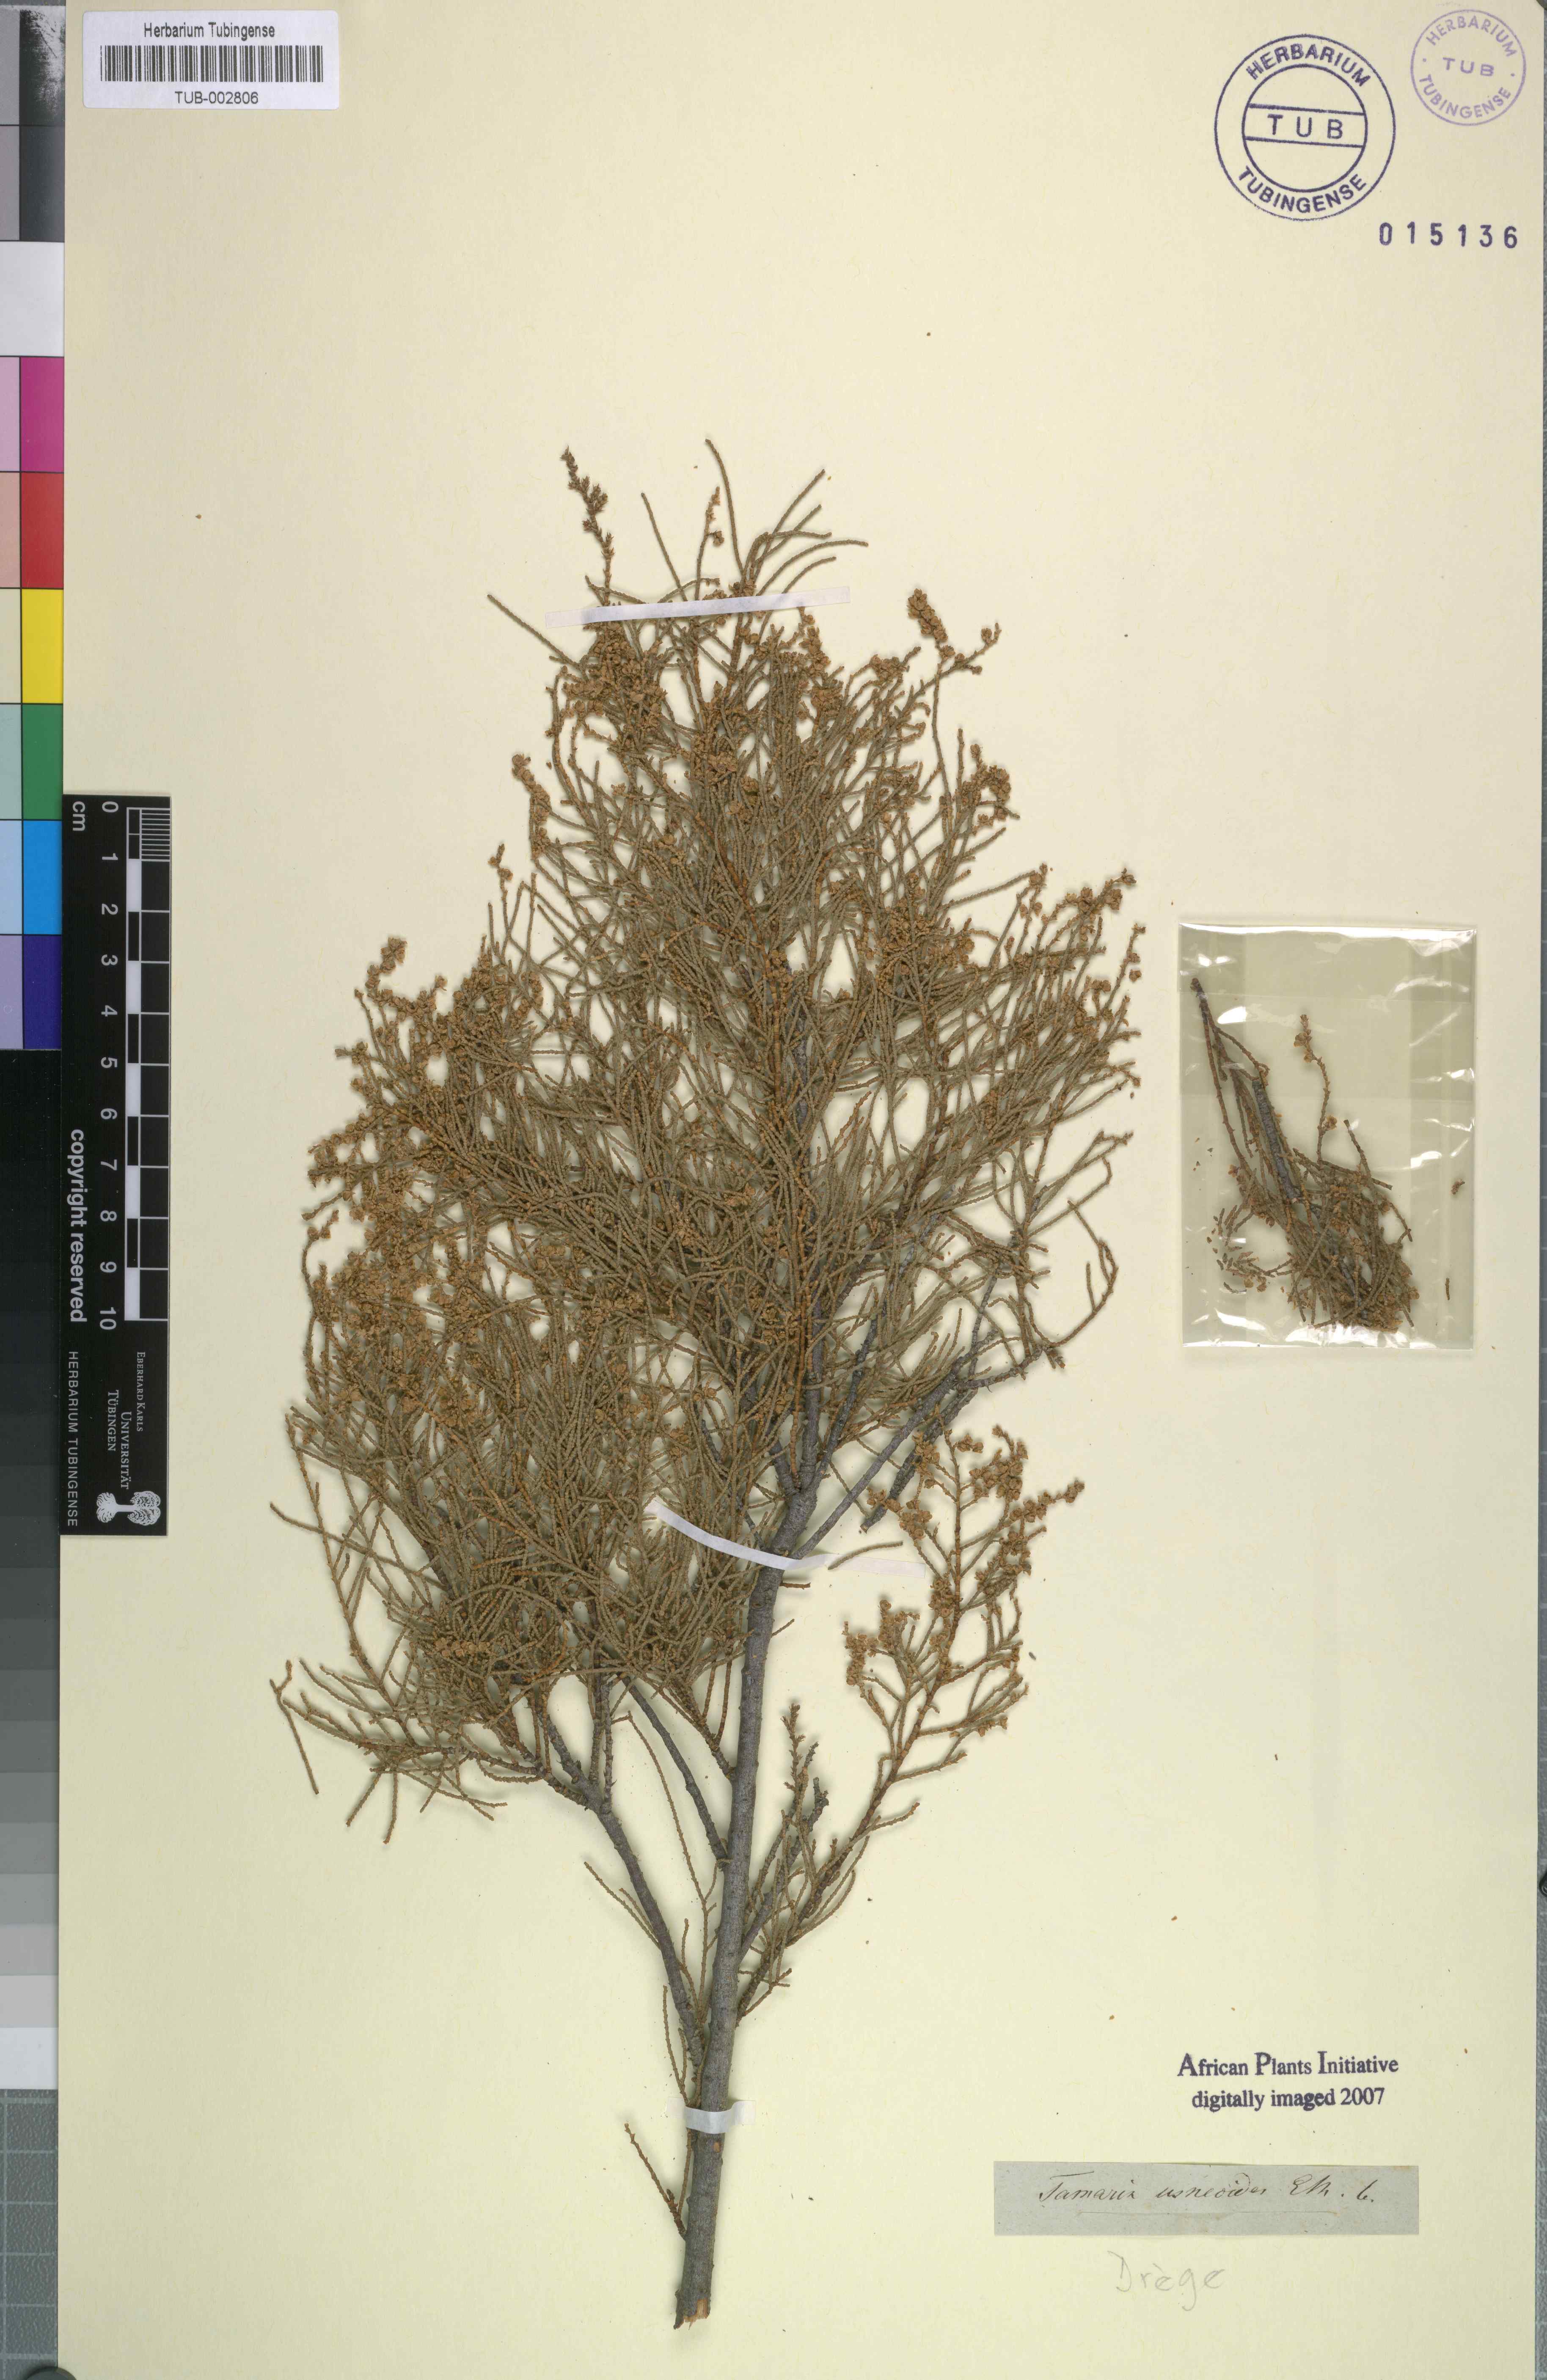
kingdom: Plantae
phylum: Tracheophyta
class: Magnoliopsida
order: Caryophyllales
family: Tamaricaceae
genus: Tamarix
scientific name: Tamarix aphylla
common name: Athel tamarisk
